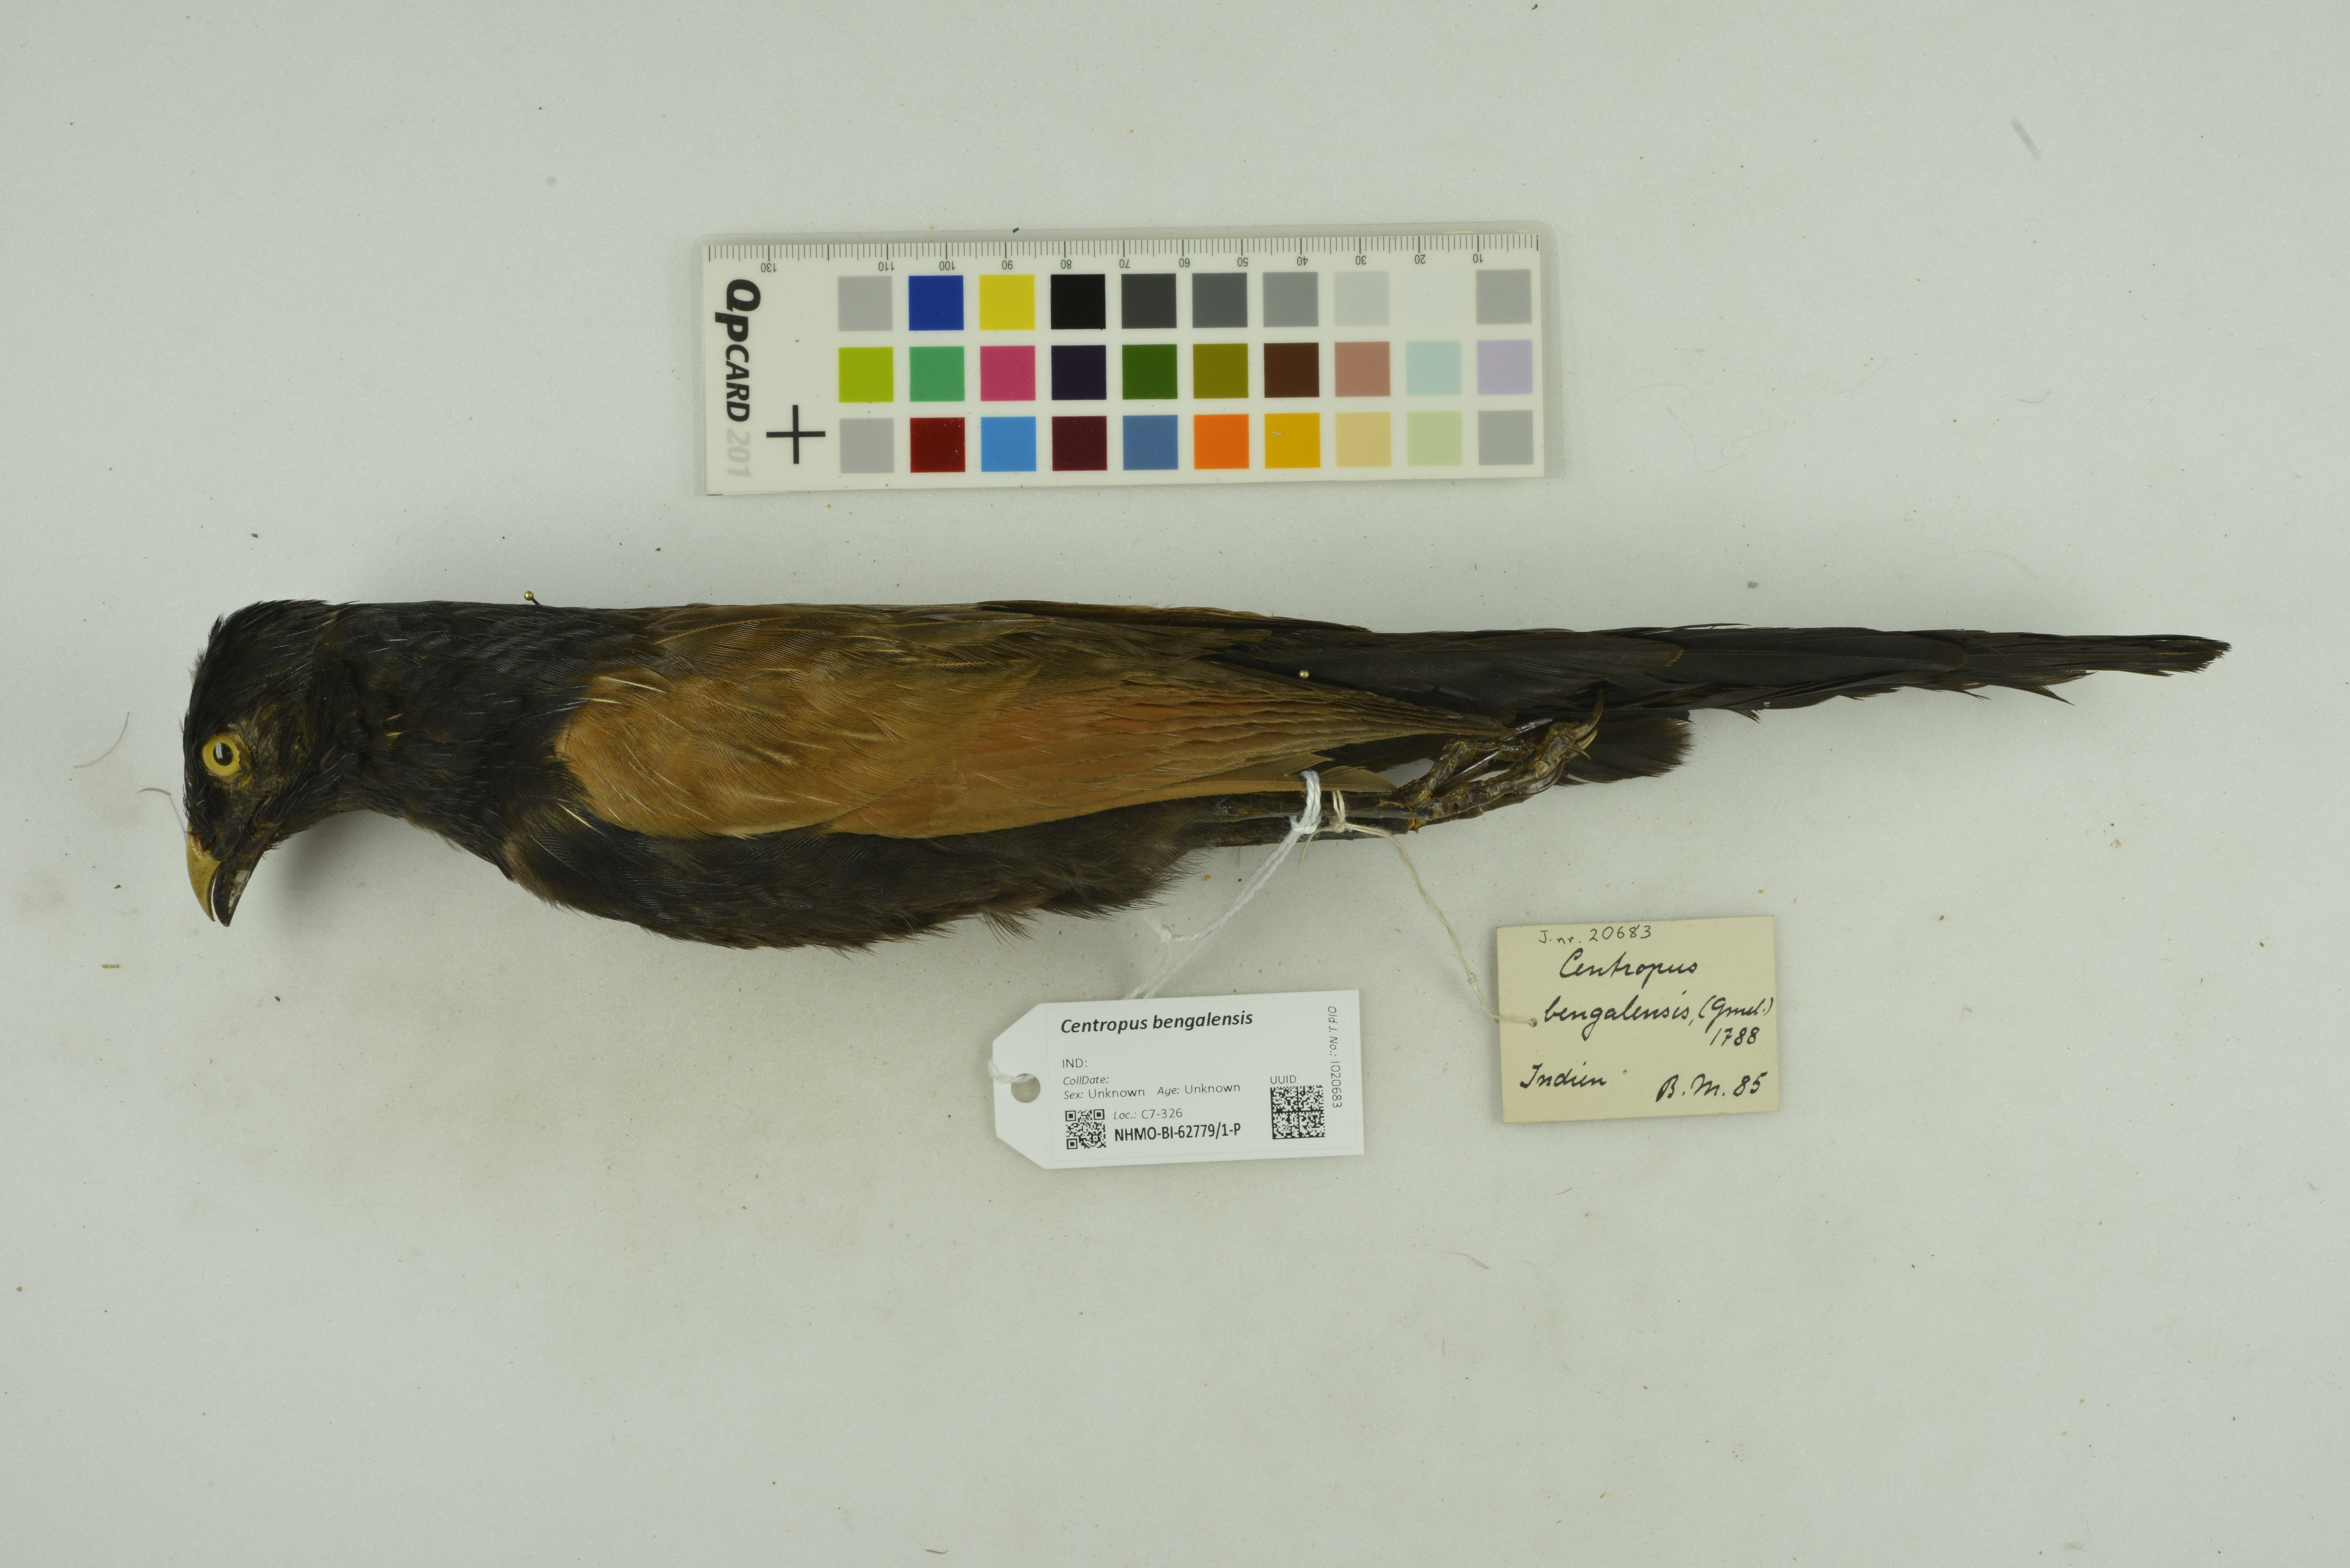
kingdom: Animalia
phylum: Chordata
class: Aves
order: Cuculiformes
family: Cuculidae
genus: Centropus
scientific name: Centropus bengalensis
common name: Lesser coucal
